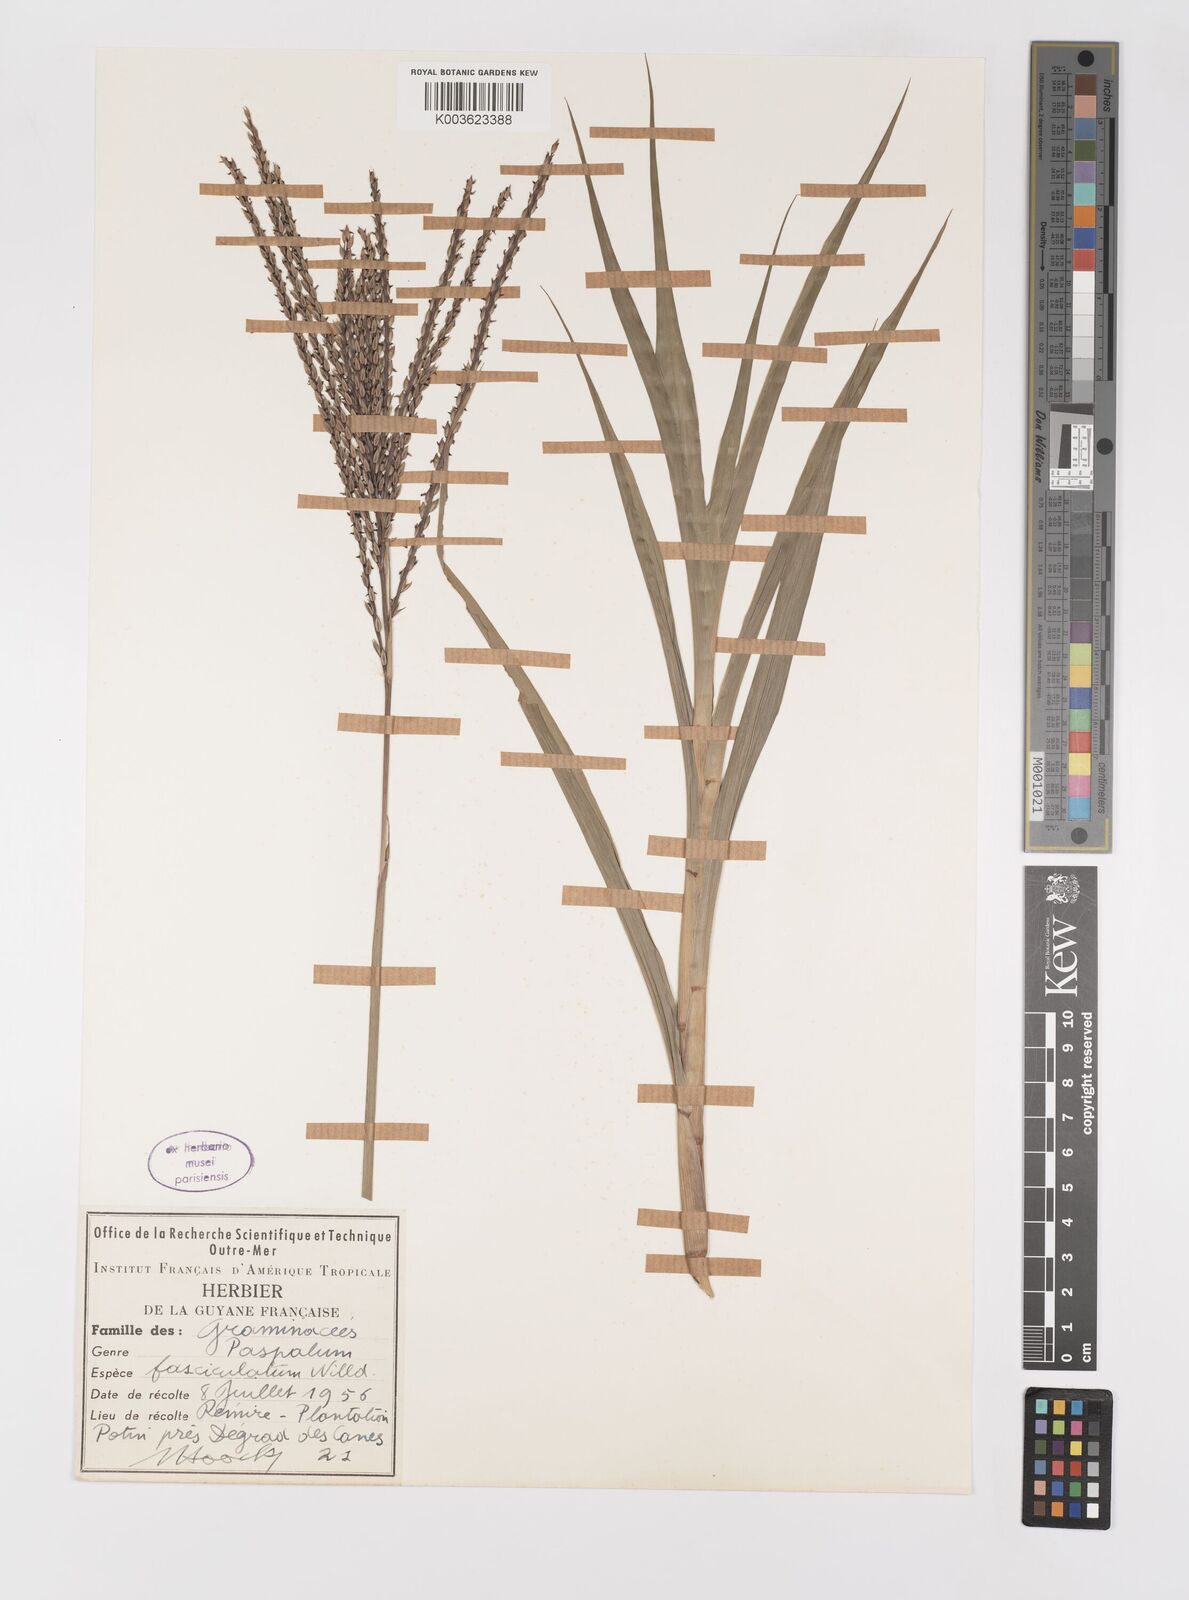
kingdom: Plantae
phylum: Tracheophyta
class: Liliopsida
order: Poales
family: Poaceae
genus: Paspalum
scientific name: Paspalum fasciculatum
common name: Bamboo grass
